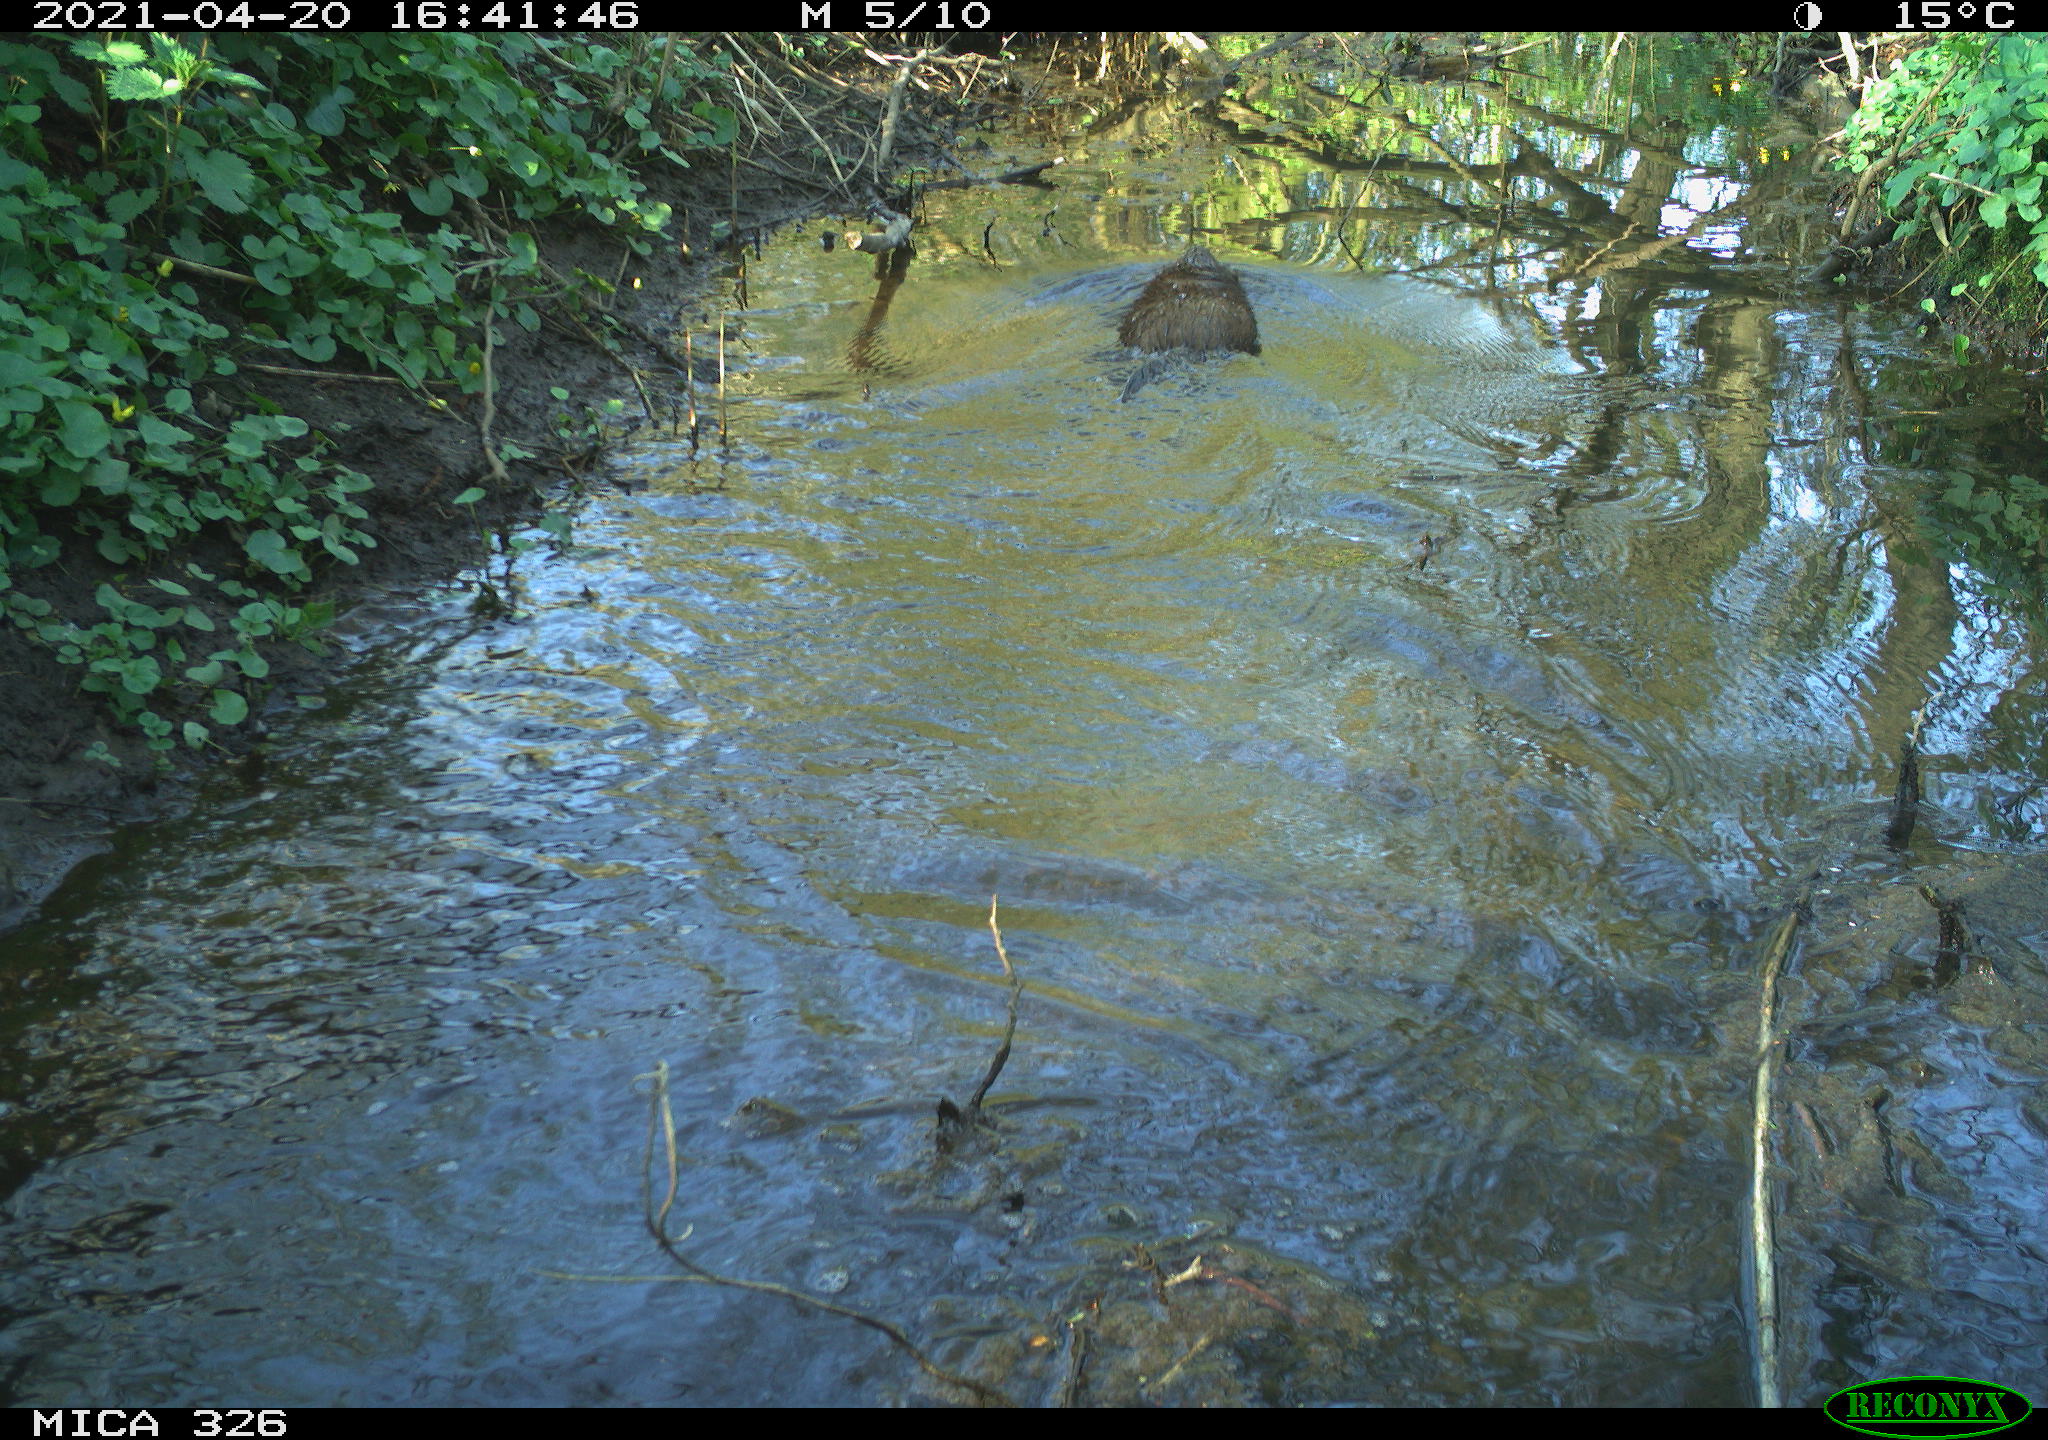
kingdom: Animalia
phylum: Chordata
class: Mammalia
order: Rodentia
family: Cricetidae
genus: Ondatra
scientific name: Ondatra zibethicus
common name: Muskrat
